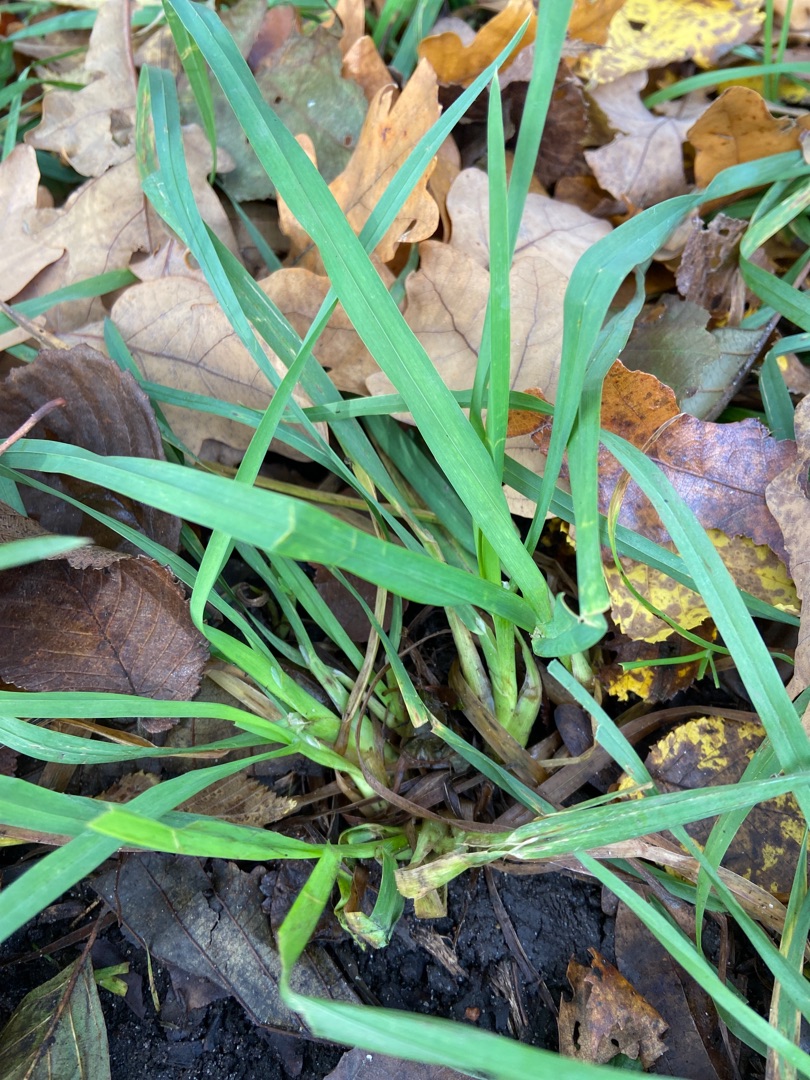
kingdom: Plantae
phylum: Tracheophyta
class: Liliopsida
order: Poales
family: Poaceae
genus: Dactylis
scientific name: Dactylis glomerata
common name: Almindelig hundegræs
